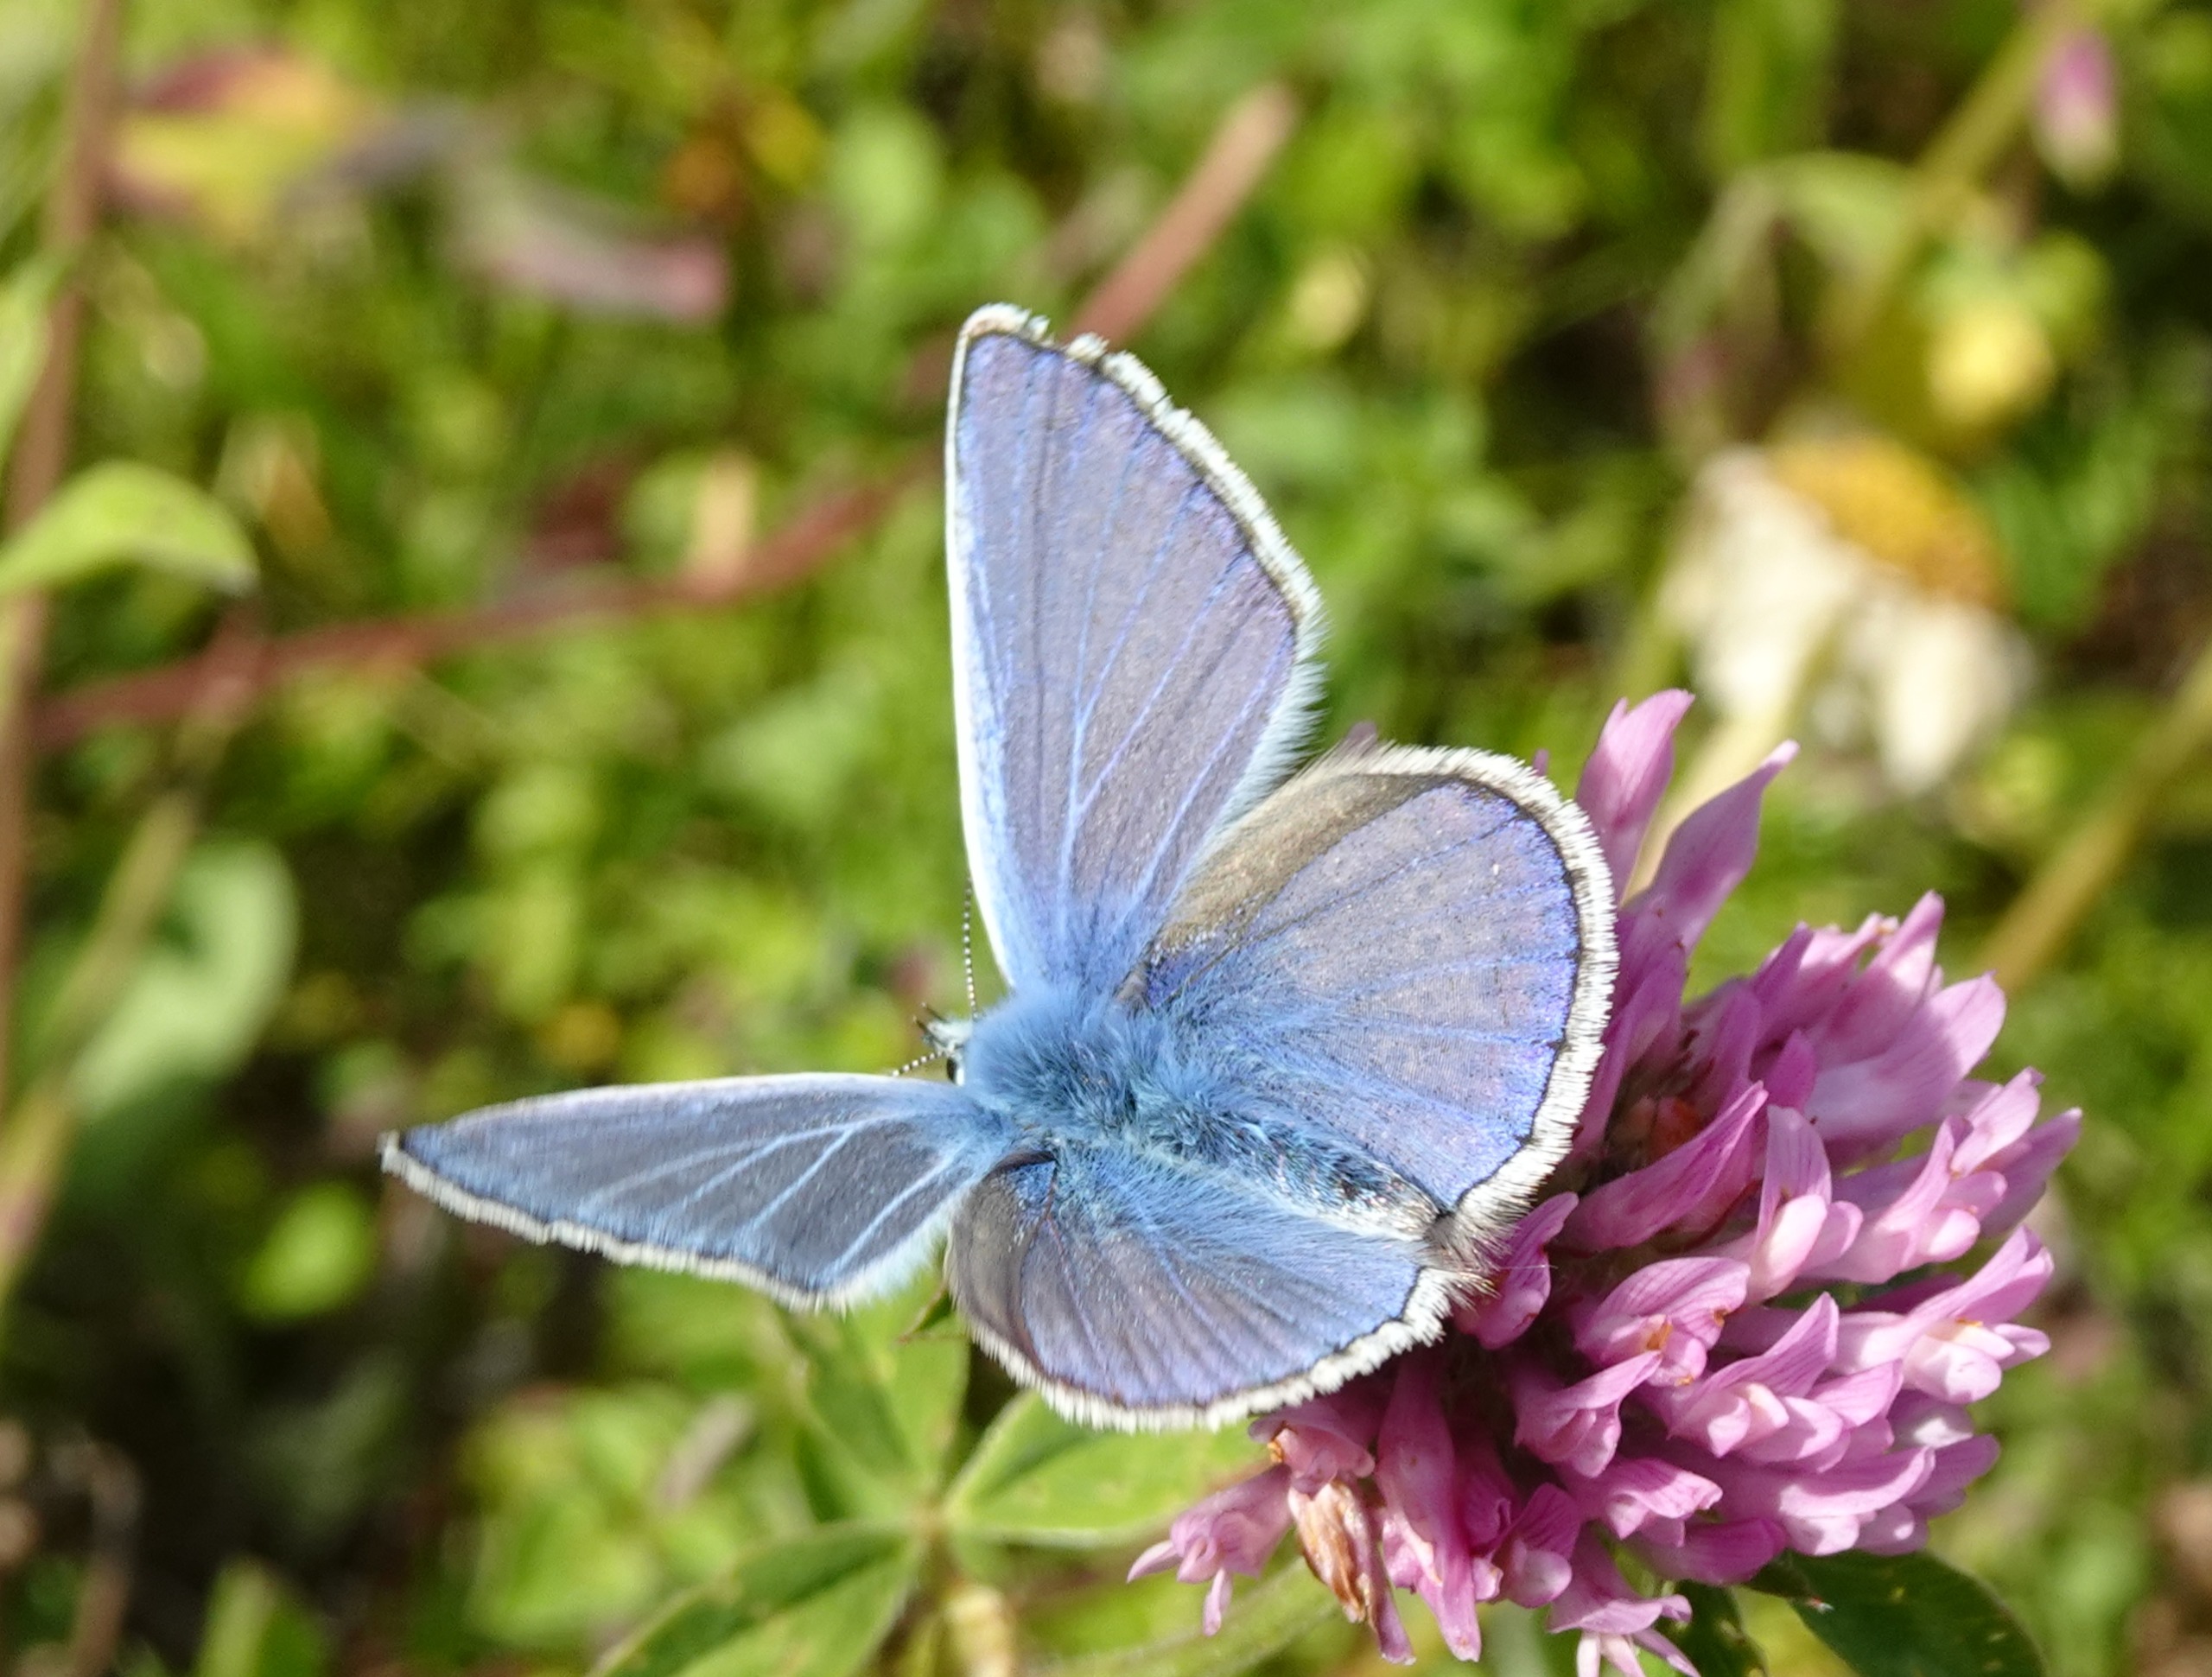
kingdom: Animalia
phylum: Arthropoda
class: Insecta
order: Lepidoptera
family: Lycaenidae
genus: Polyommatus
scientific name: Polyommatus icarus
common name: Almindelig blåfugl
